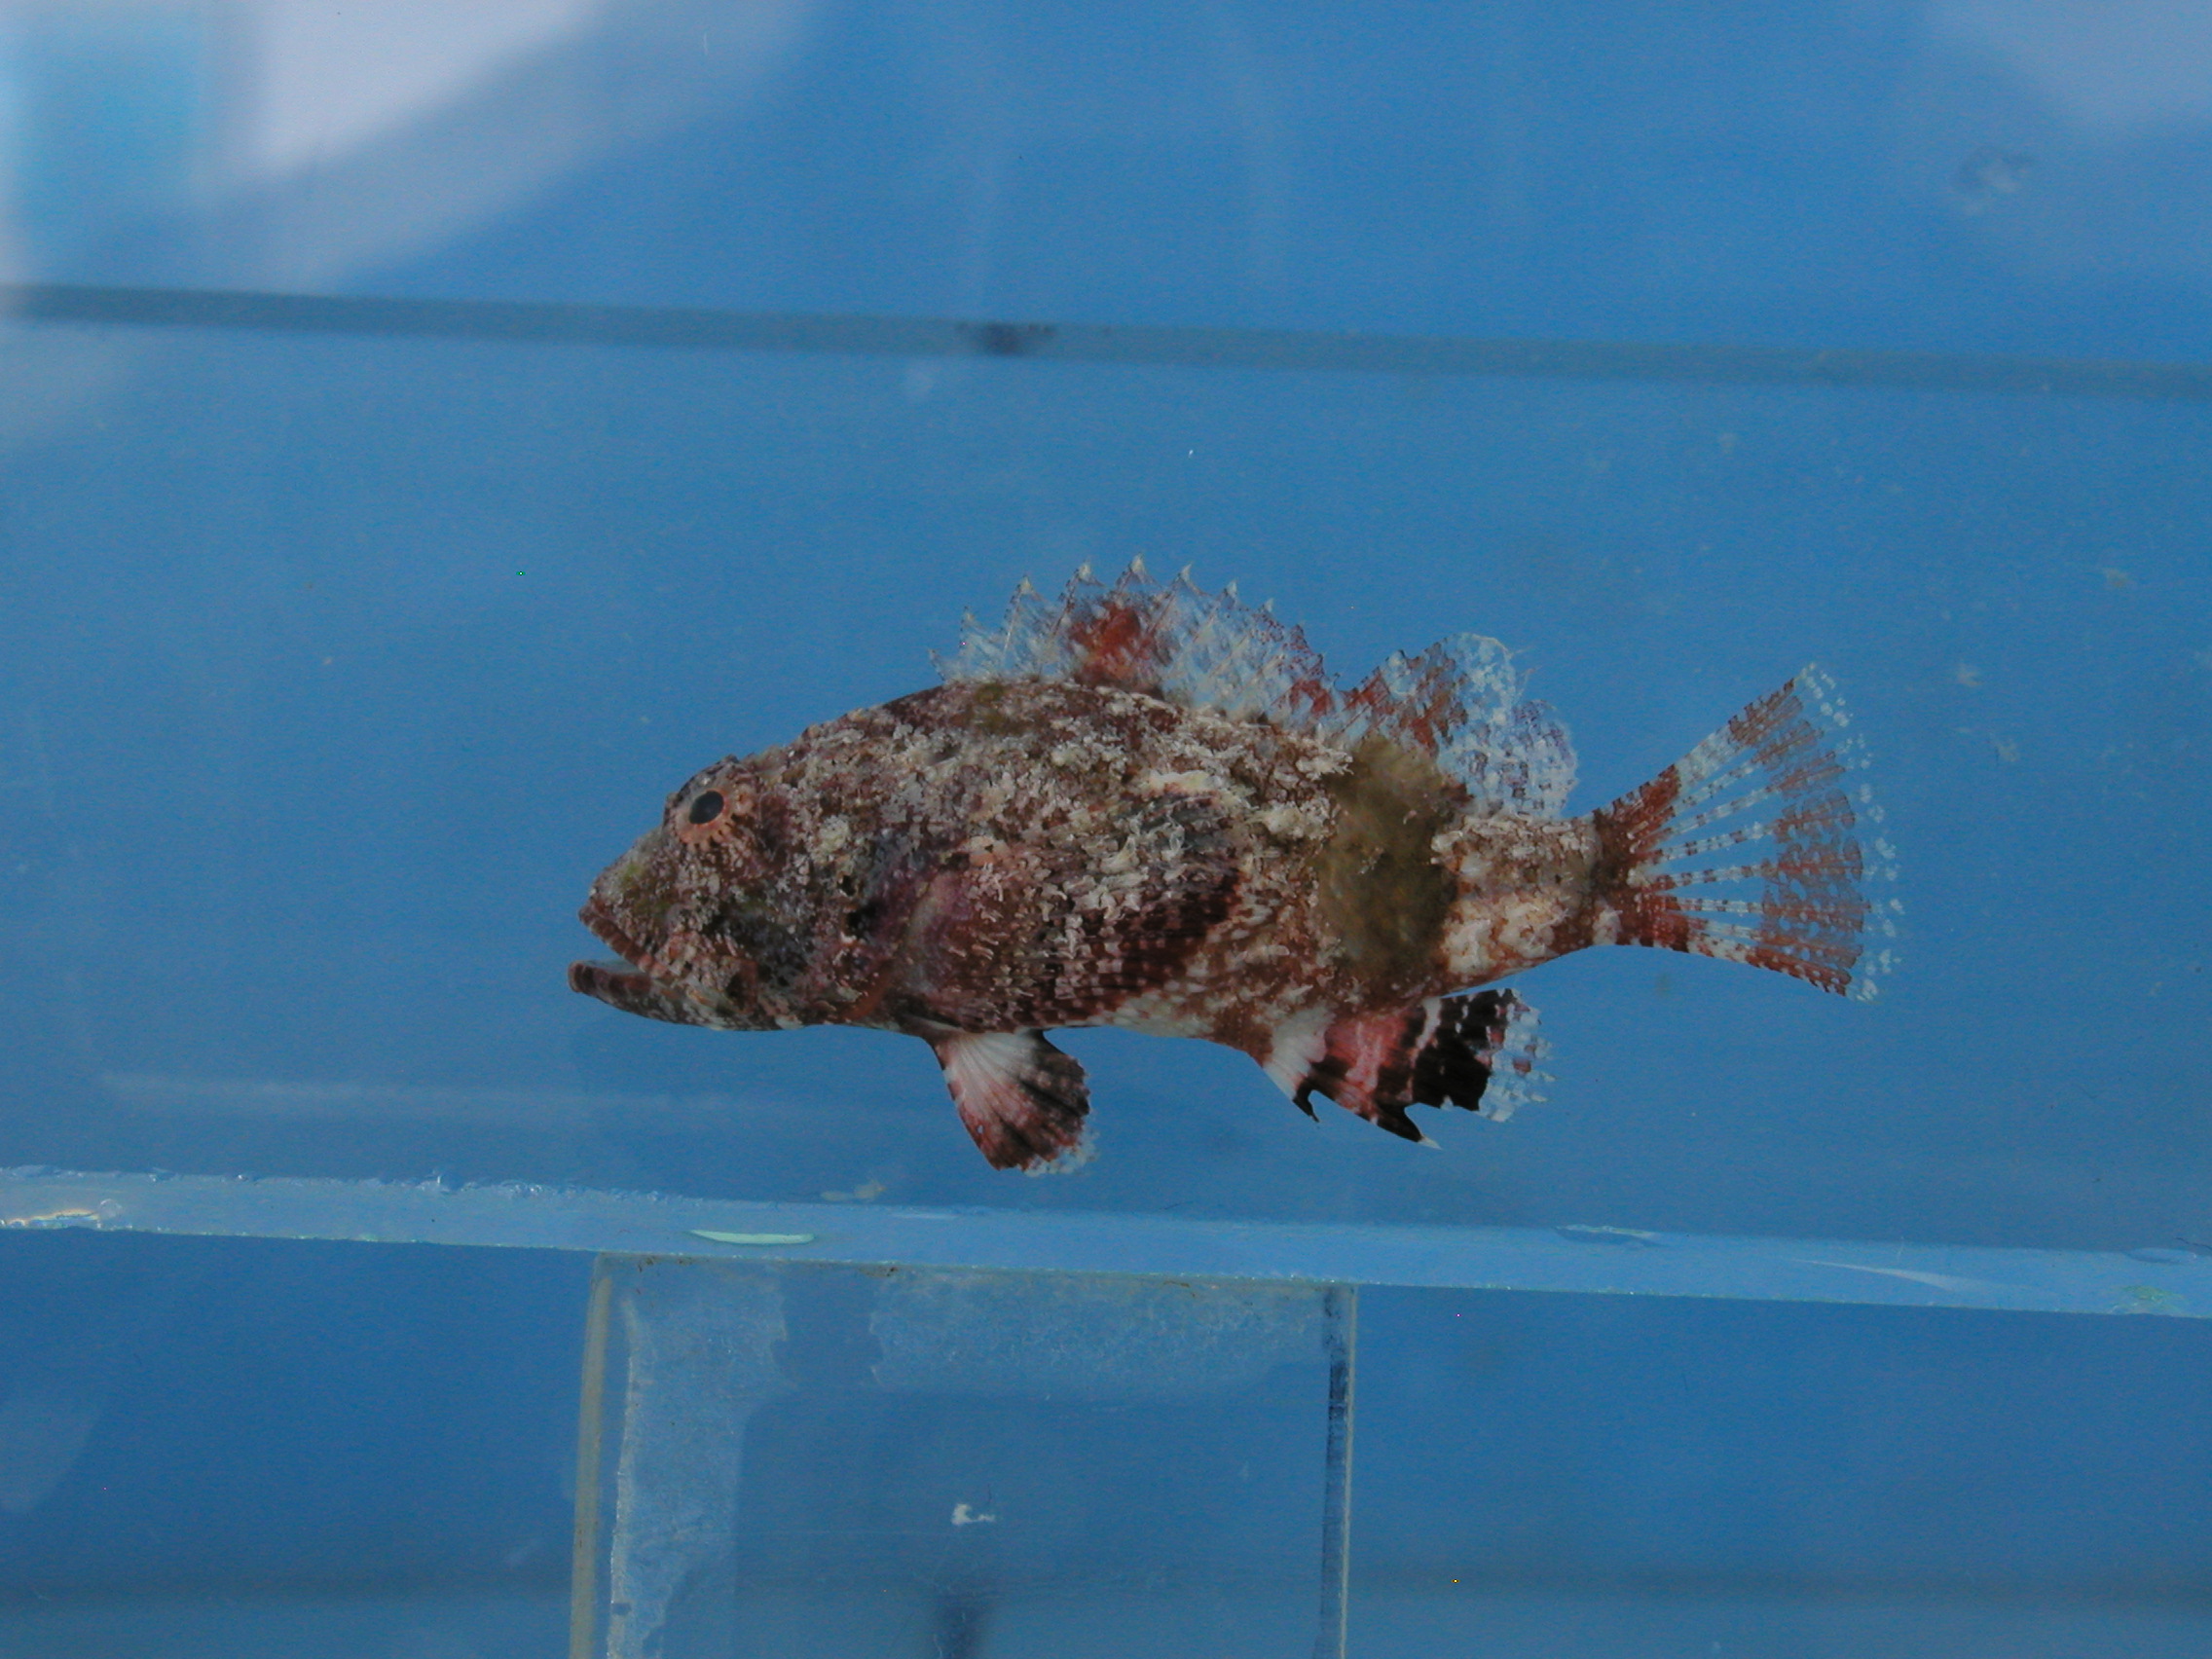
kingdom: Animalia
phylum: Chordata
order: Scorpaeniformes
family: Scorpaenidae
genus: Scorpaenopsis
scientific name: Scorpaenopsis vittapinna
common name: Bandfin scorpionfish
